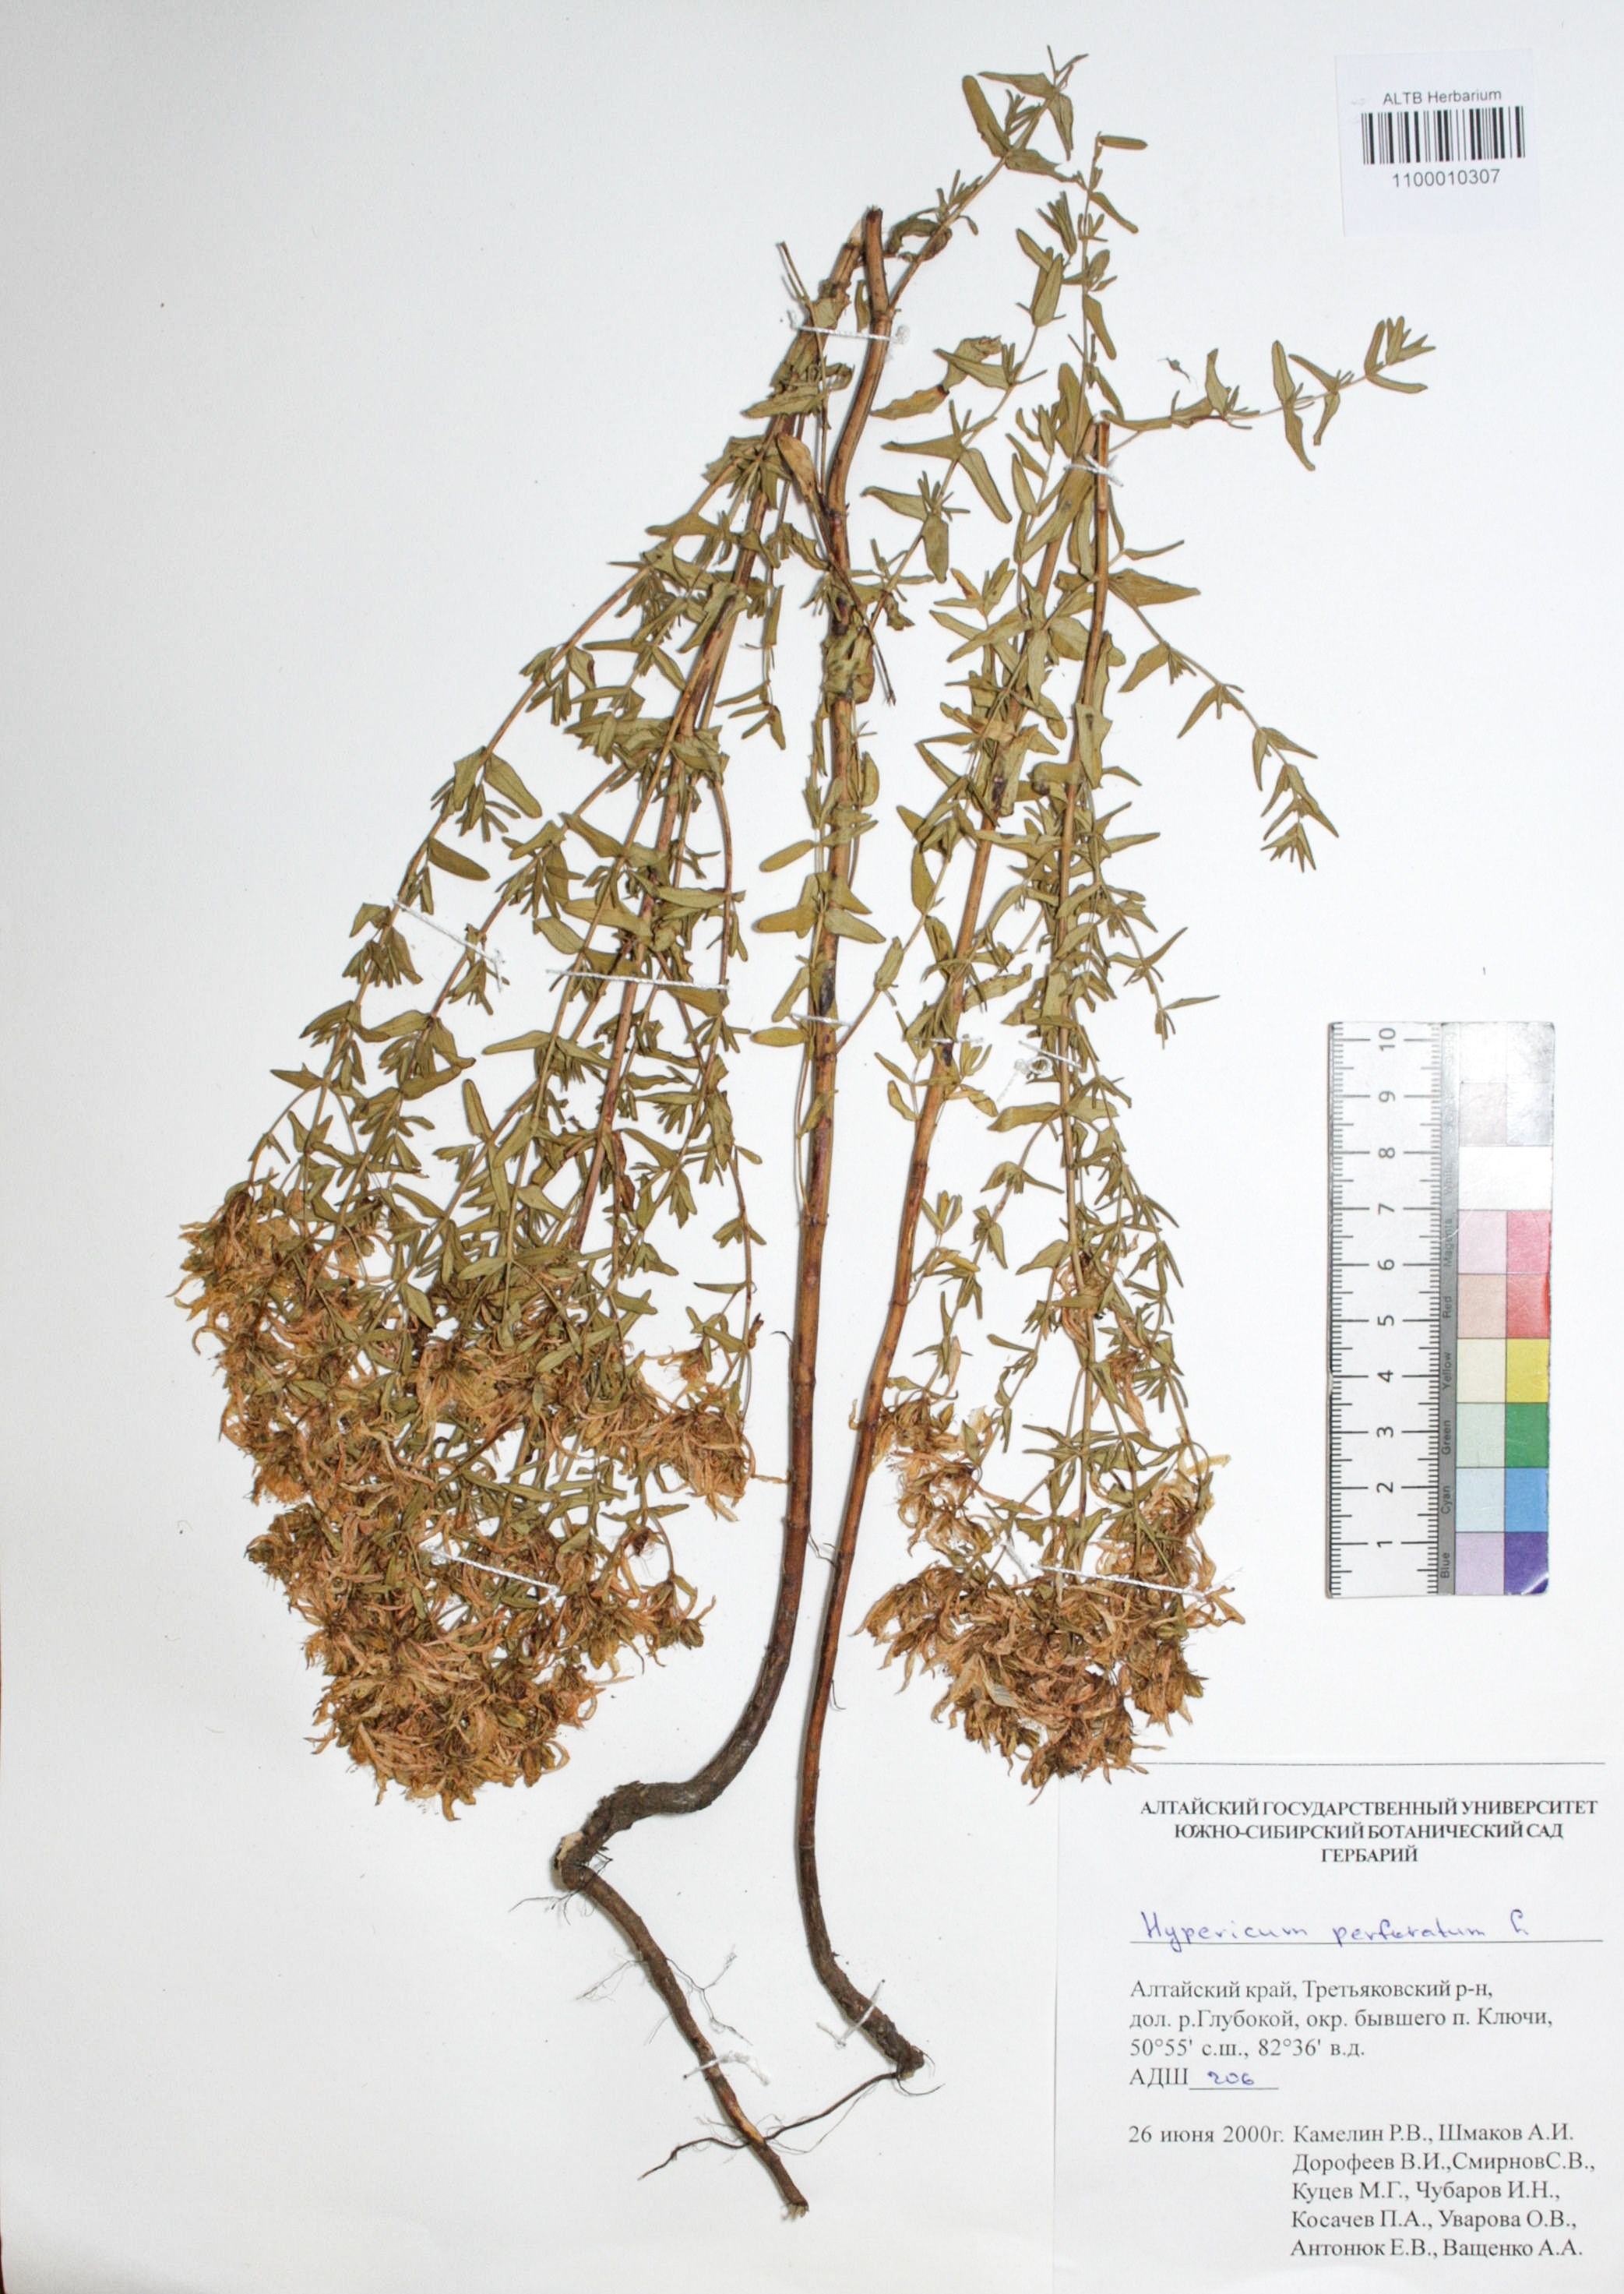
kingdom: Plantae
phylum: Tracheophyta
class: Magnoliopsida
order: Malpighiales
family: Hypericaceae
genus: Hypericum
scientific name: Hypericum perforatum
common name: Common st. johnswort
